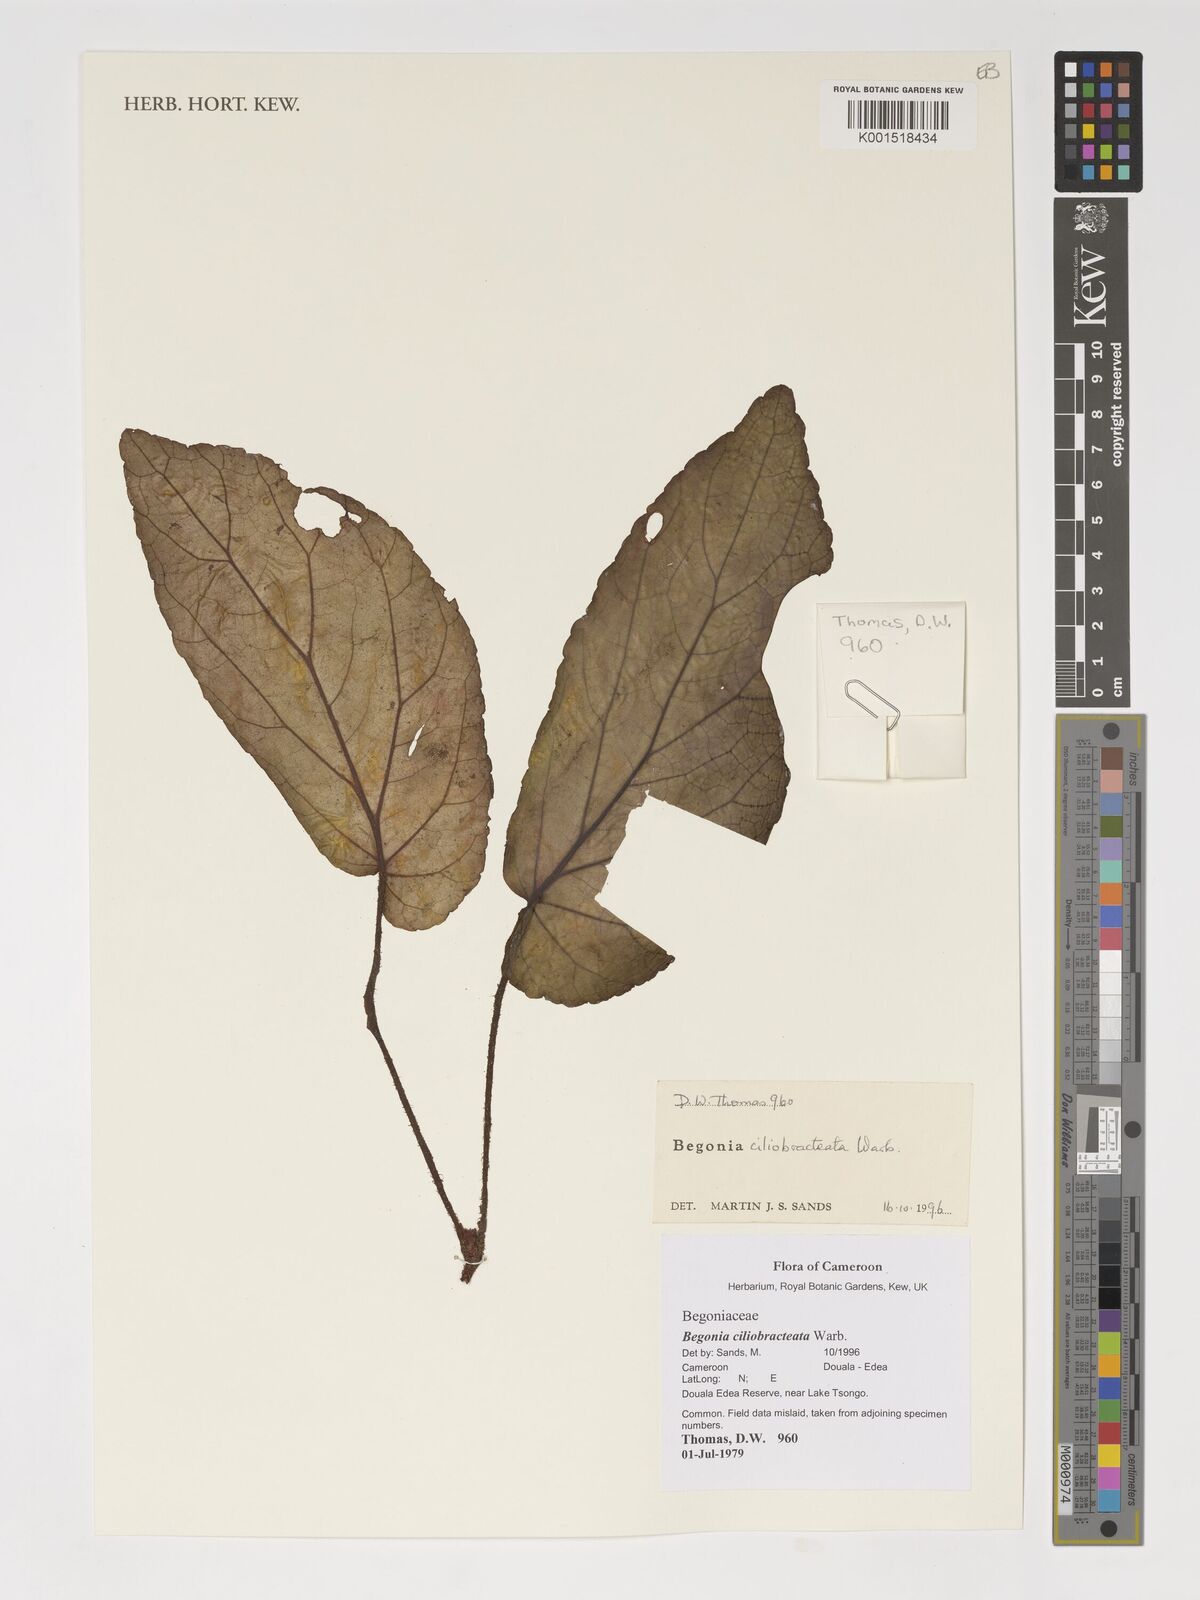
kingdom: Plantae
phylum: Tracheophyta
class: Magnoliopsida
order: Cucurbitales
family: Begoniaceae
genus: Begonia
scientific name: Begonia ciliobracteata
